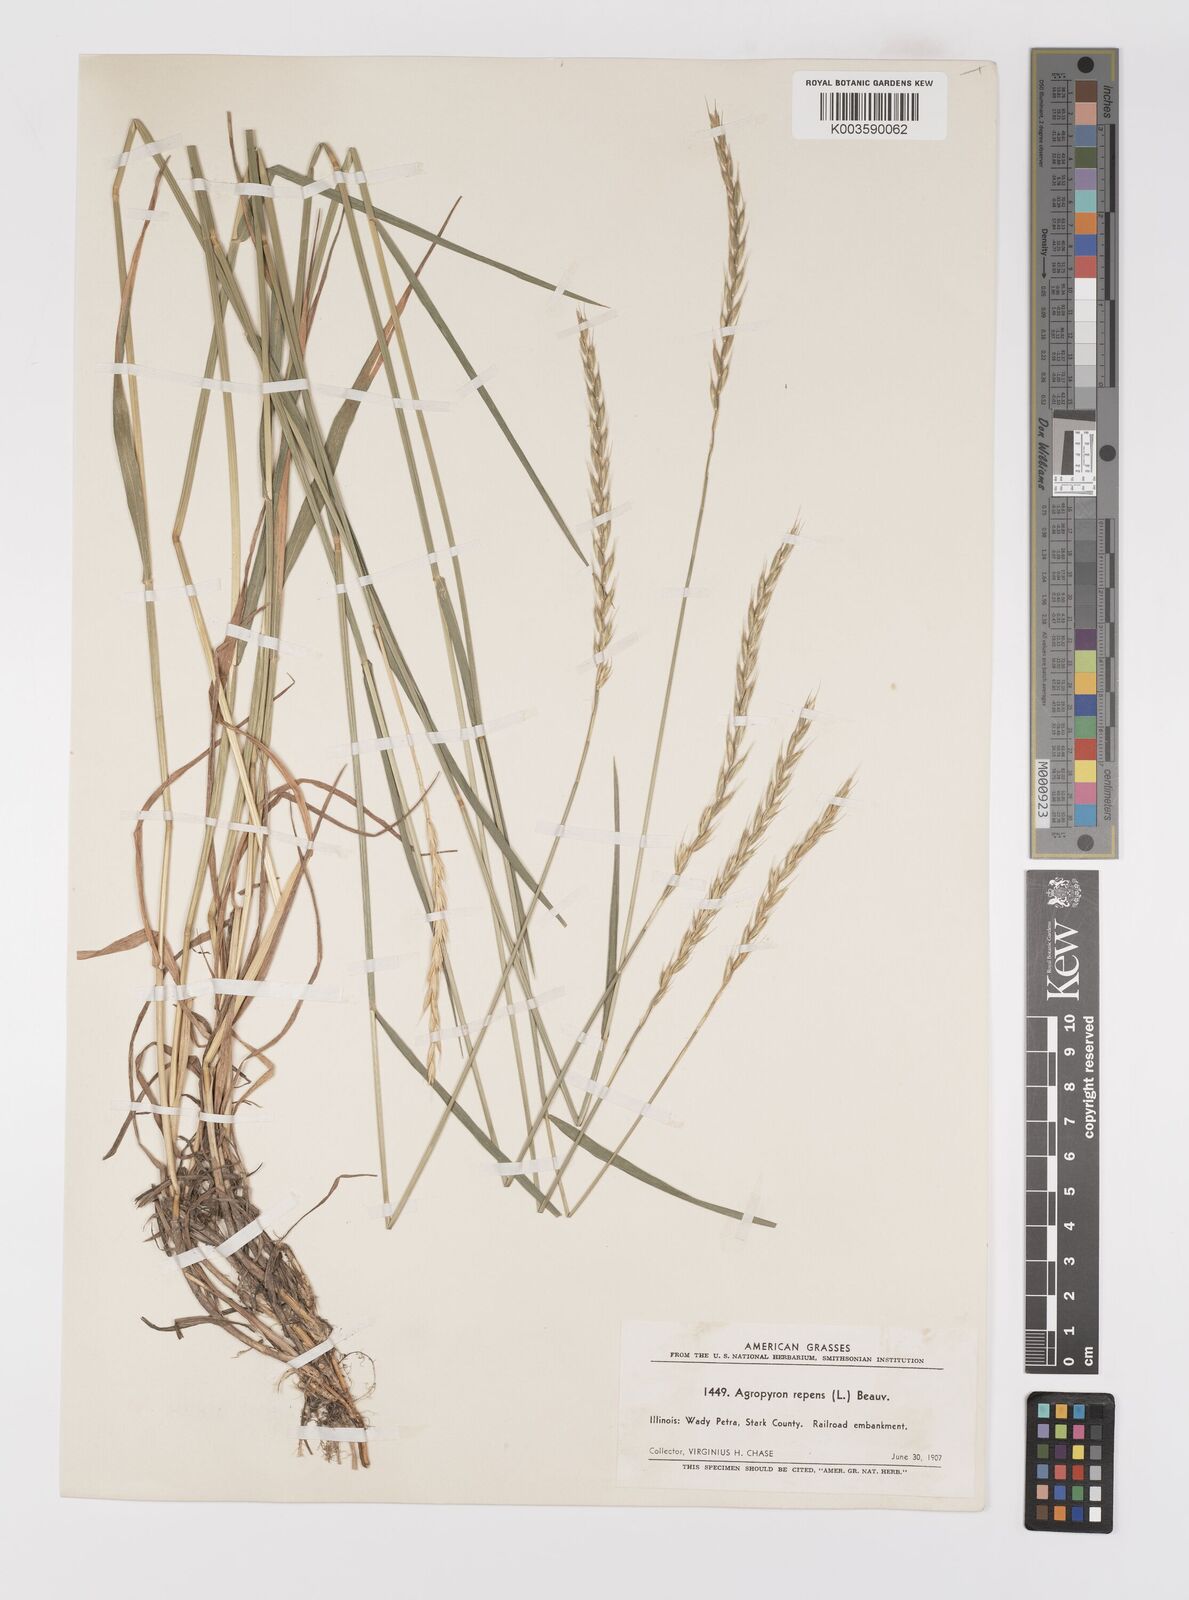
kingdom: Plantae
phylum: Tracheophyta
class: Liliopsida
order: Poales
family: Poaceae
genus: Elymus
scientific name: Elymus repens
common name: Quackgrass
